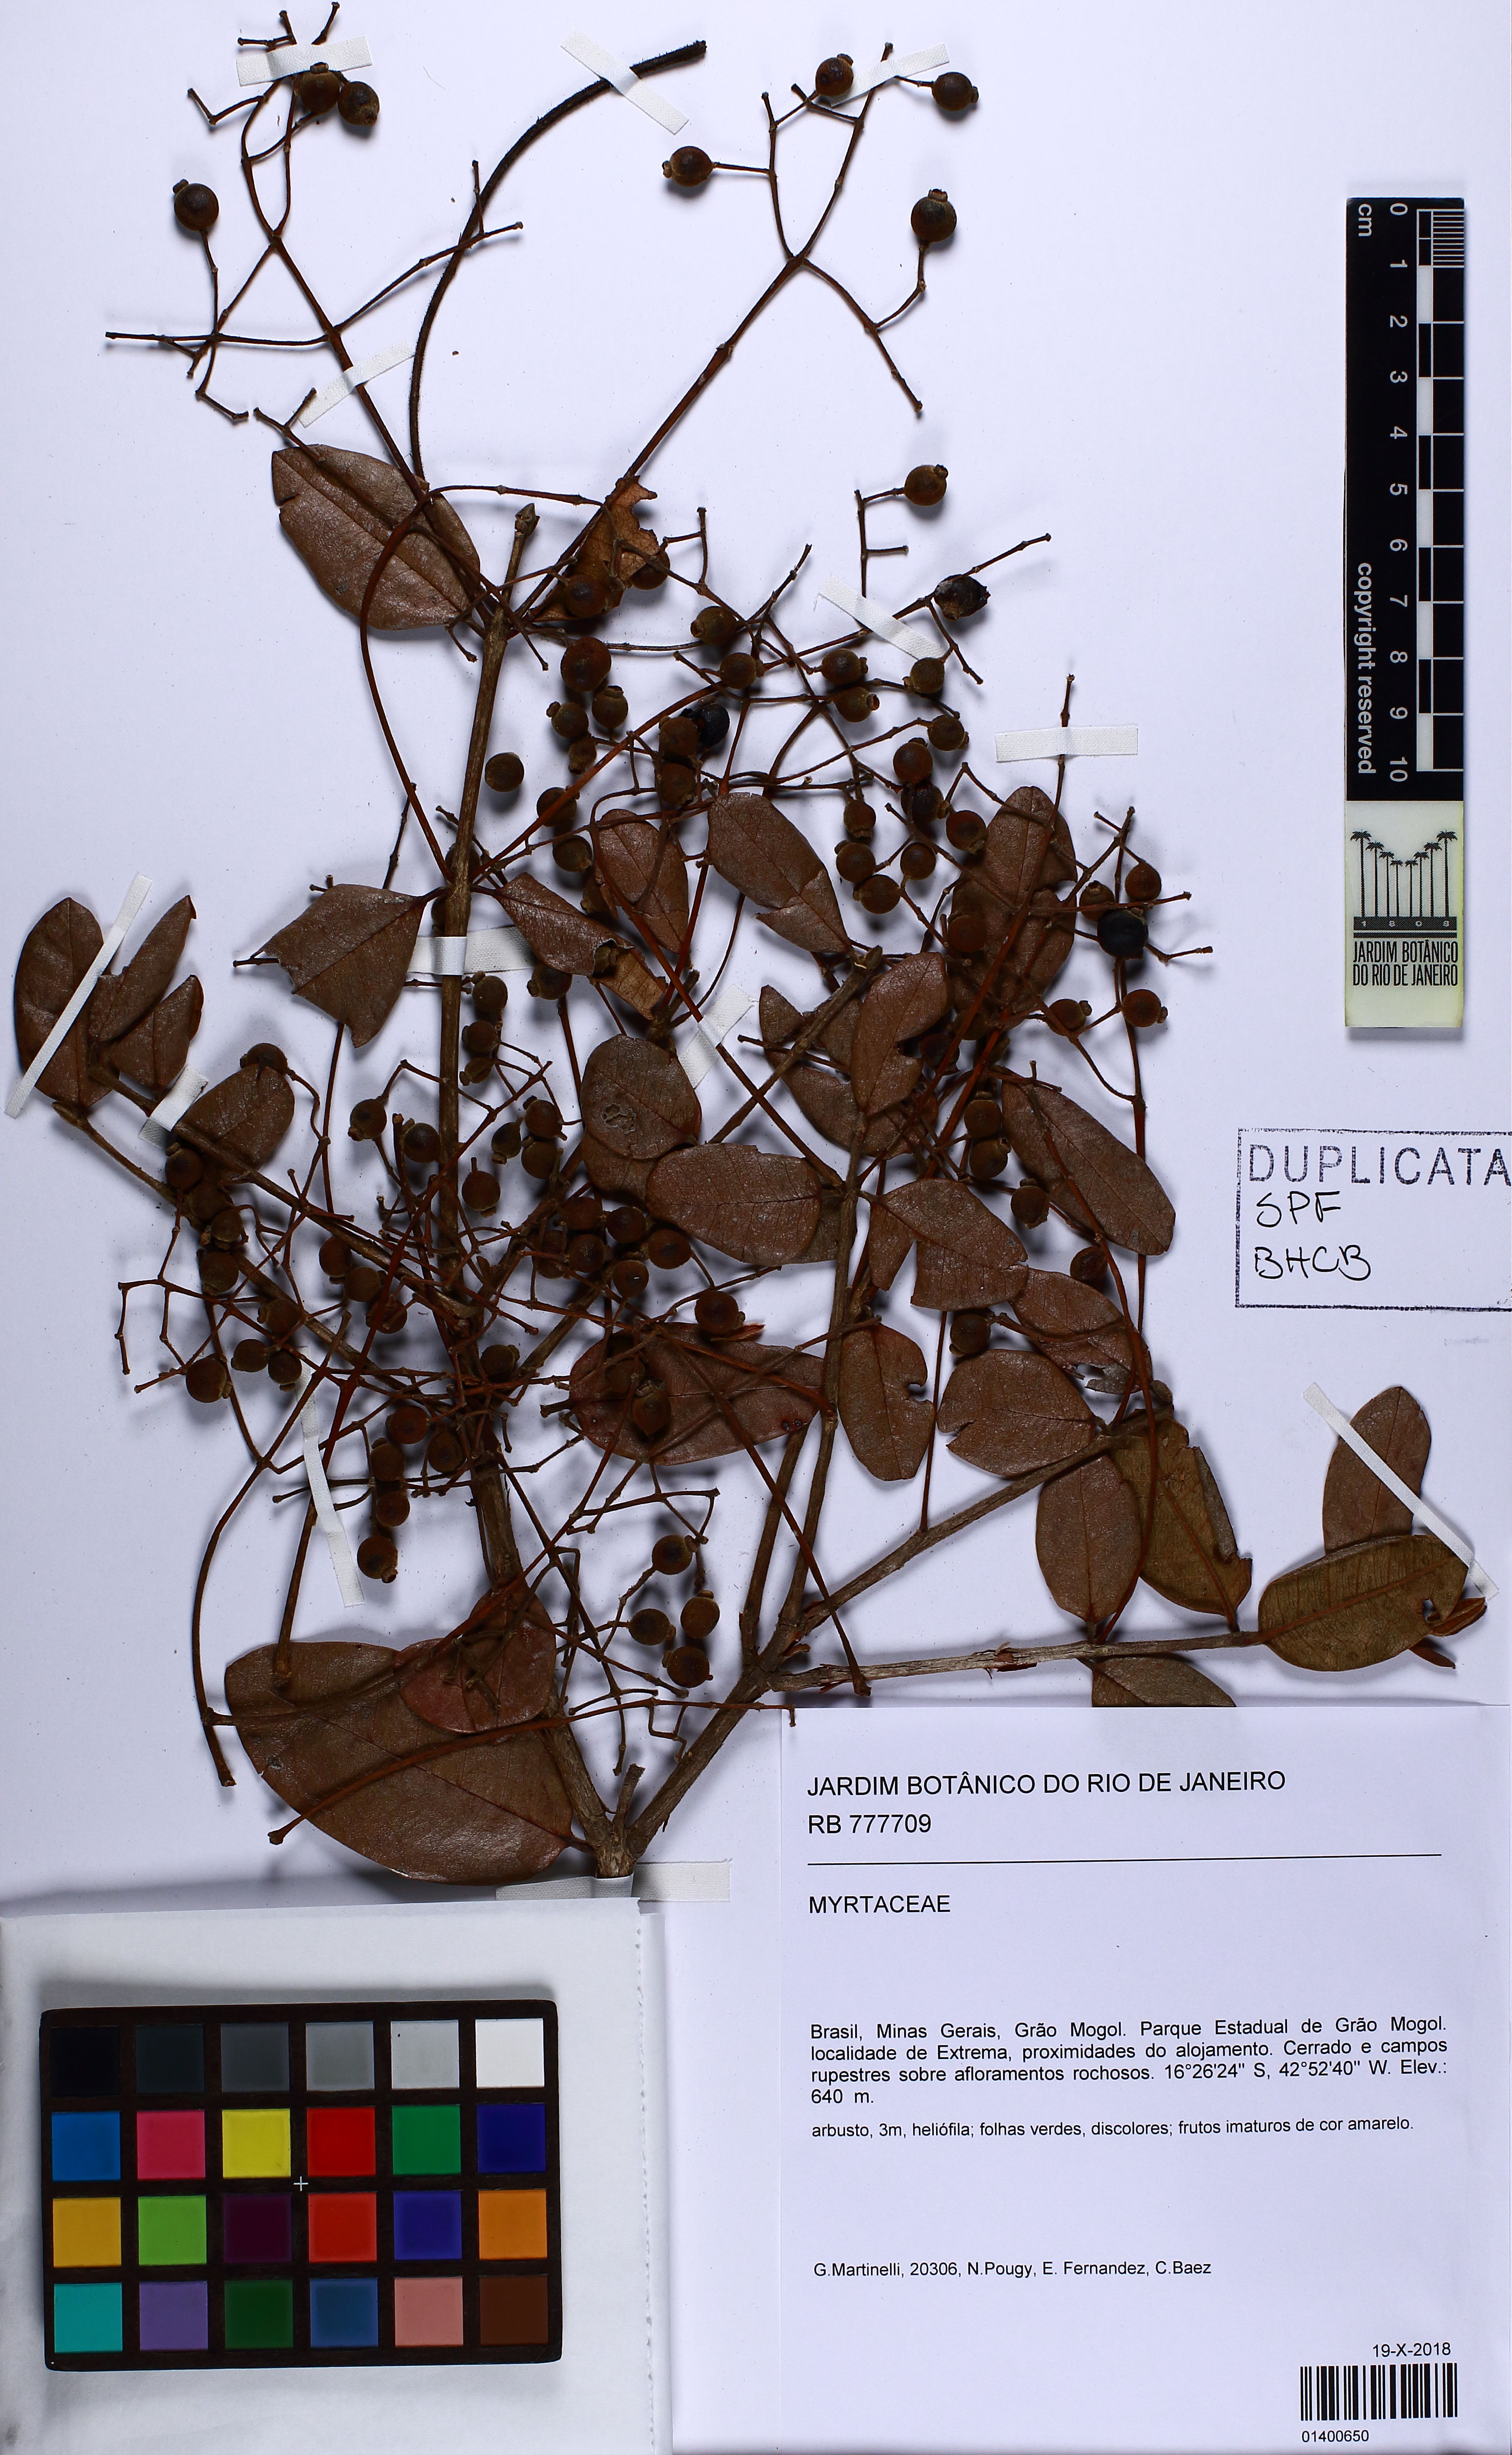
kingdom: Plantae
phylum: Tracheophyta
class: Magnoliopsida
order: Myrtales
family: Myrtaceae
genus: Myrcia
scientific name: Myrcia hebepetala
